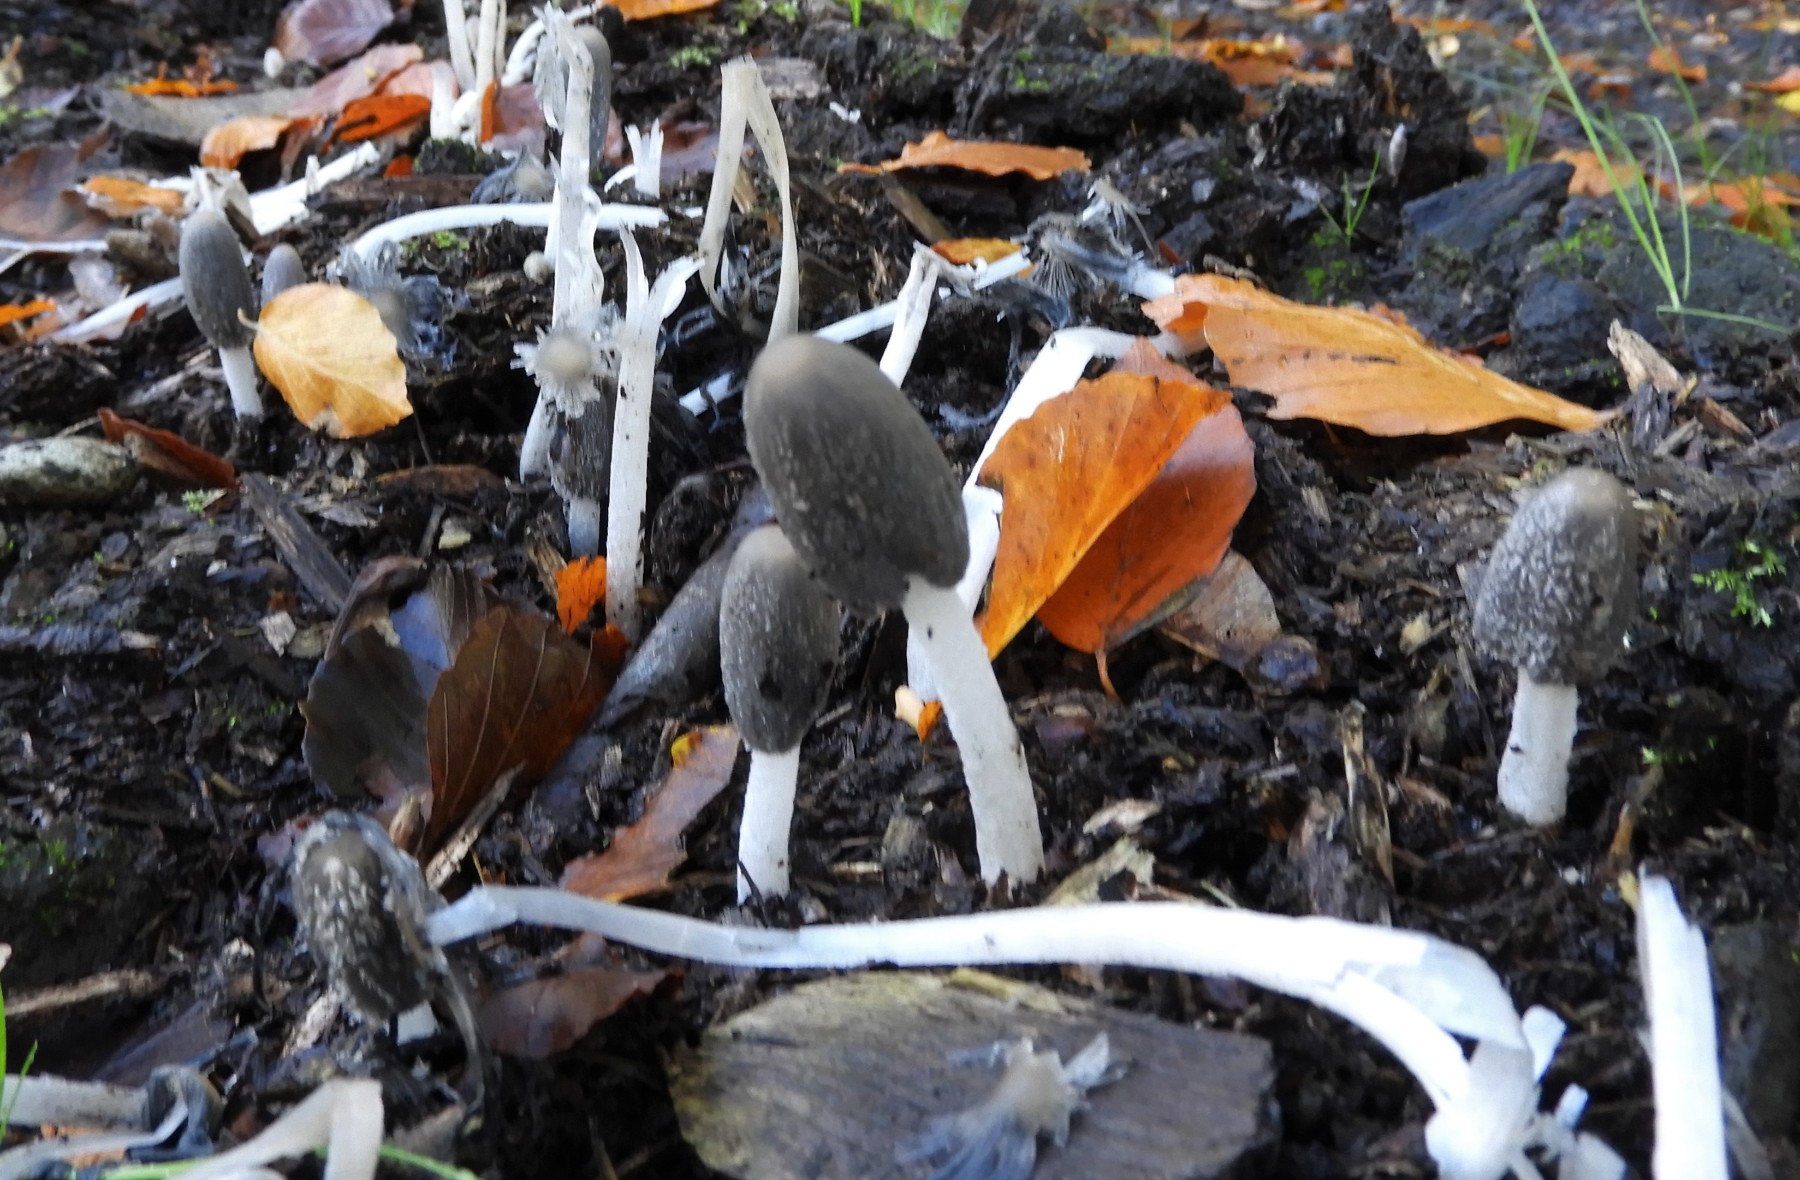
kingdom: Fungi
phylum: Basidiomycota
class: Agaricomycetes
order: Agaricales
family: Psathyrellaceae
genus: Coprinopsis
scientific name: Coprinopsis lagopus
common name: dunstokket blækhat
